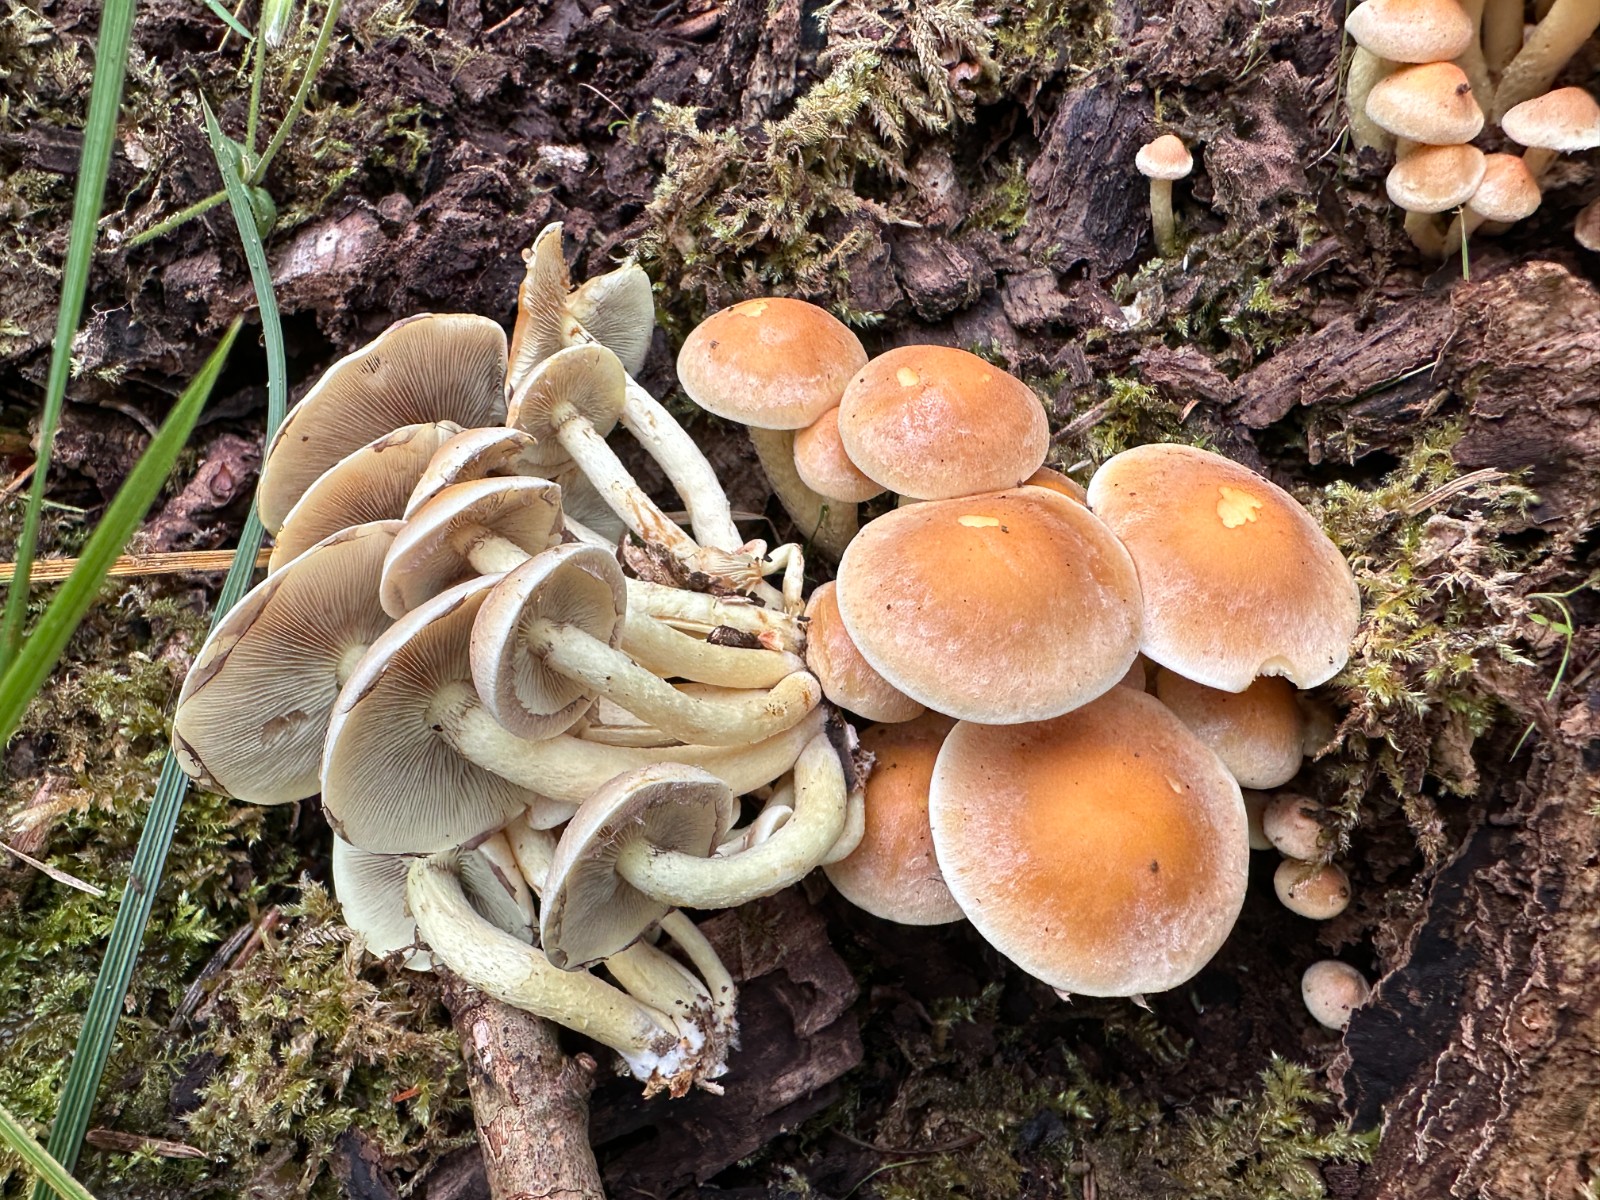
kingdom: Fungi
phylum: Basidiomycota
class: Agaricomycetes
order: Agaricales
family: Strophariaceae
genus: Hypholoma
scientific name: Hypholoma fasciculare
